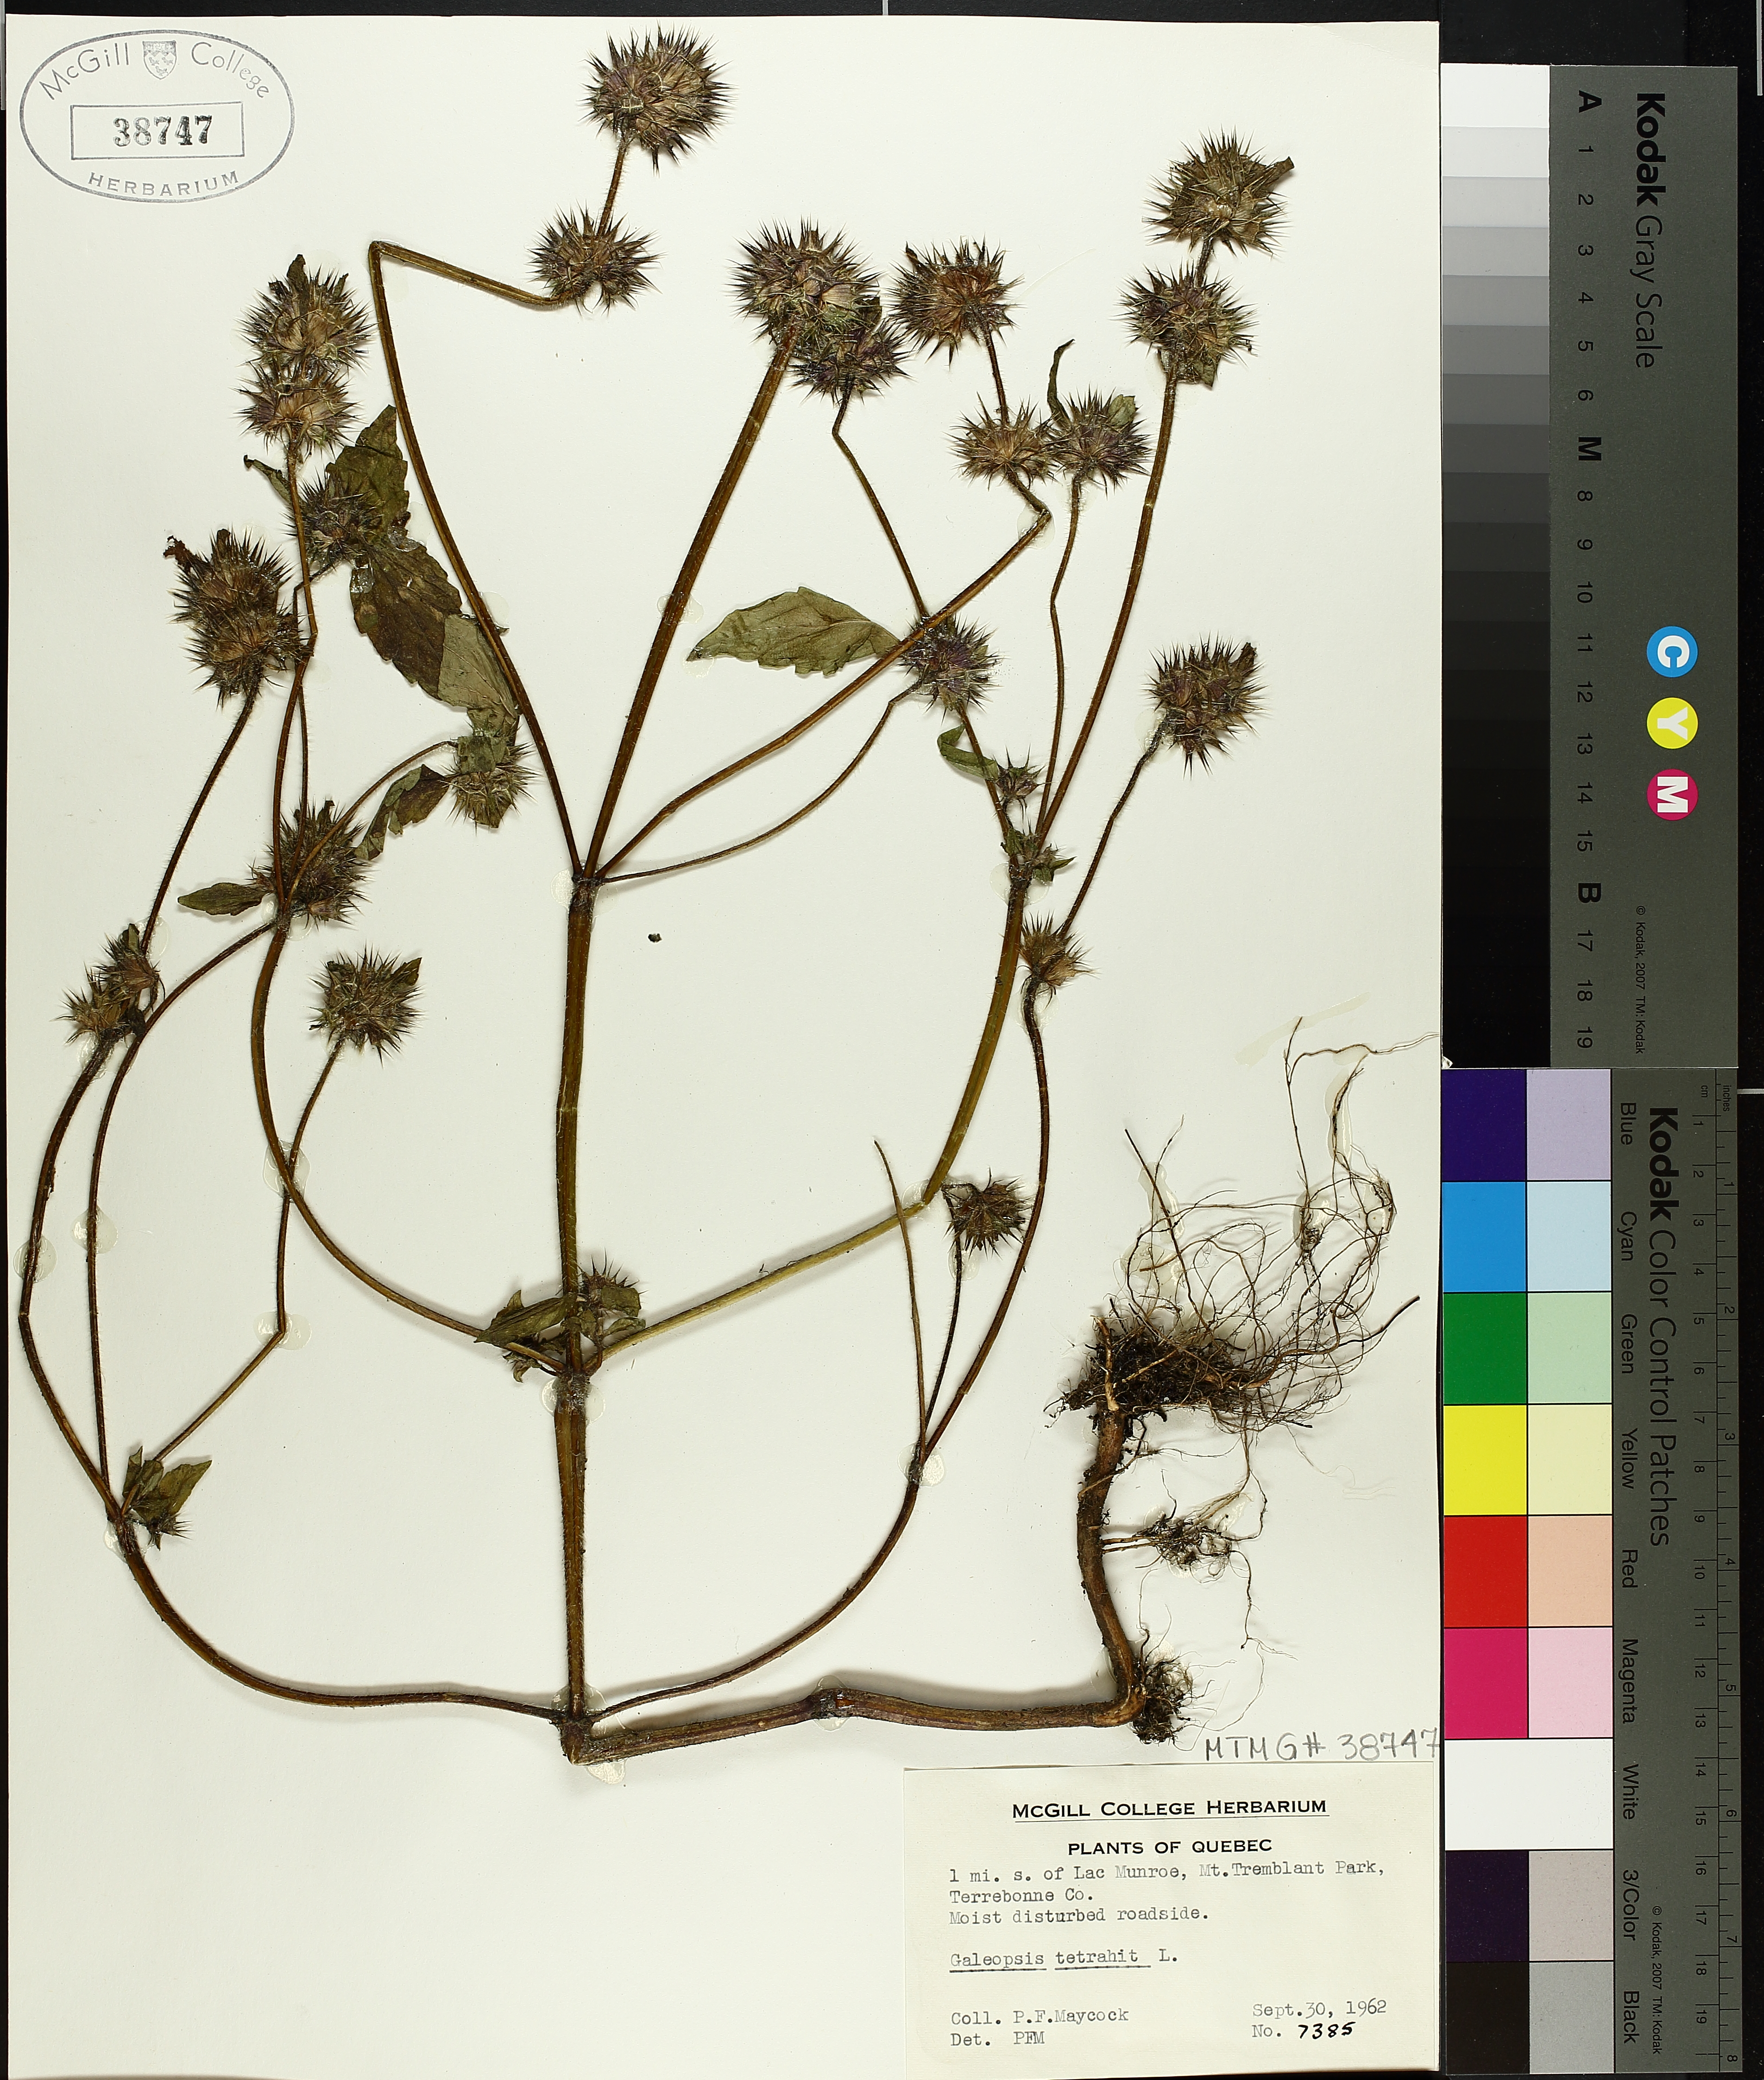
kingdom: Plantae
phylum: Tracheophyta
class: Magnoliopsida
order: Lamiales
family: Lamiaceae
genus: Galeopsis
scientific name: Galeopsis tetrahit
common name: Common hemp-nettle
